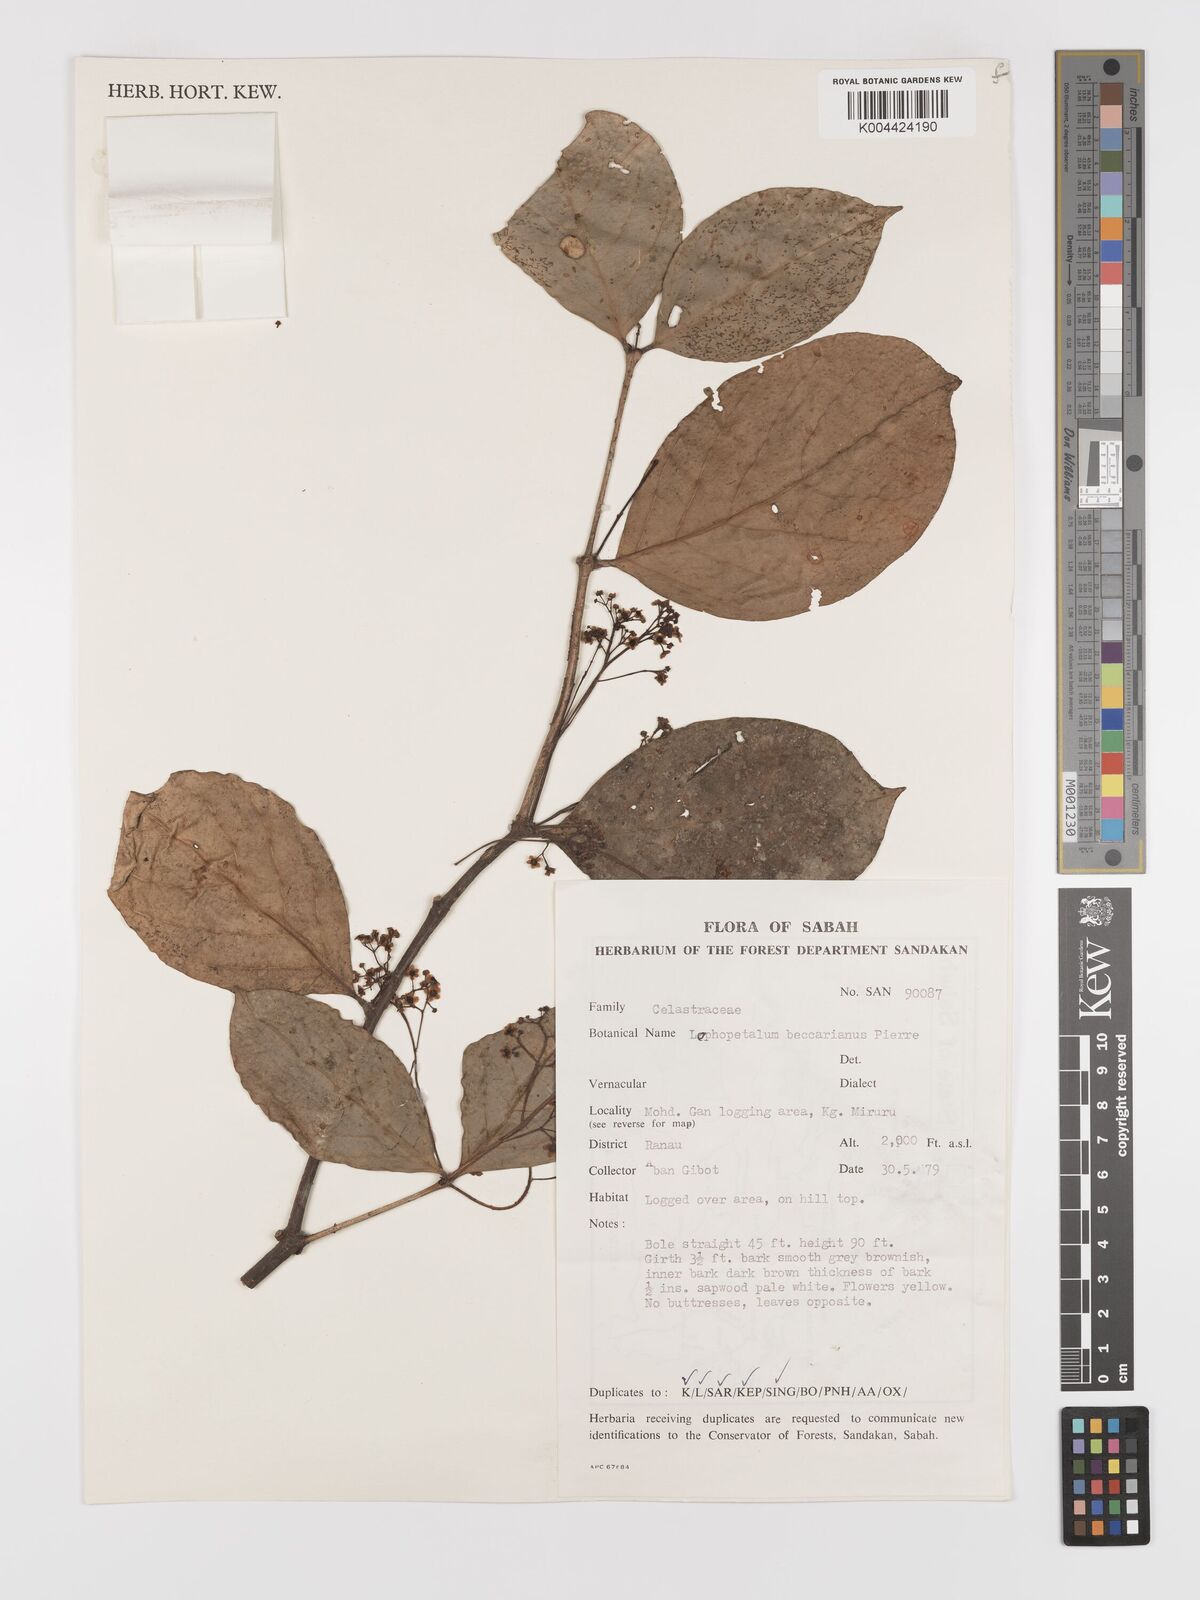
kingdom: Plantae
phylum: Tracheophyta
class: Magnoliopsida
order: Celastrales
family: Celastraceae
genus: Lophopetalum
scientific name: Lophopetalum beccarianum
